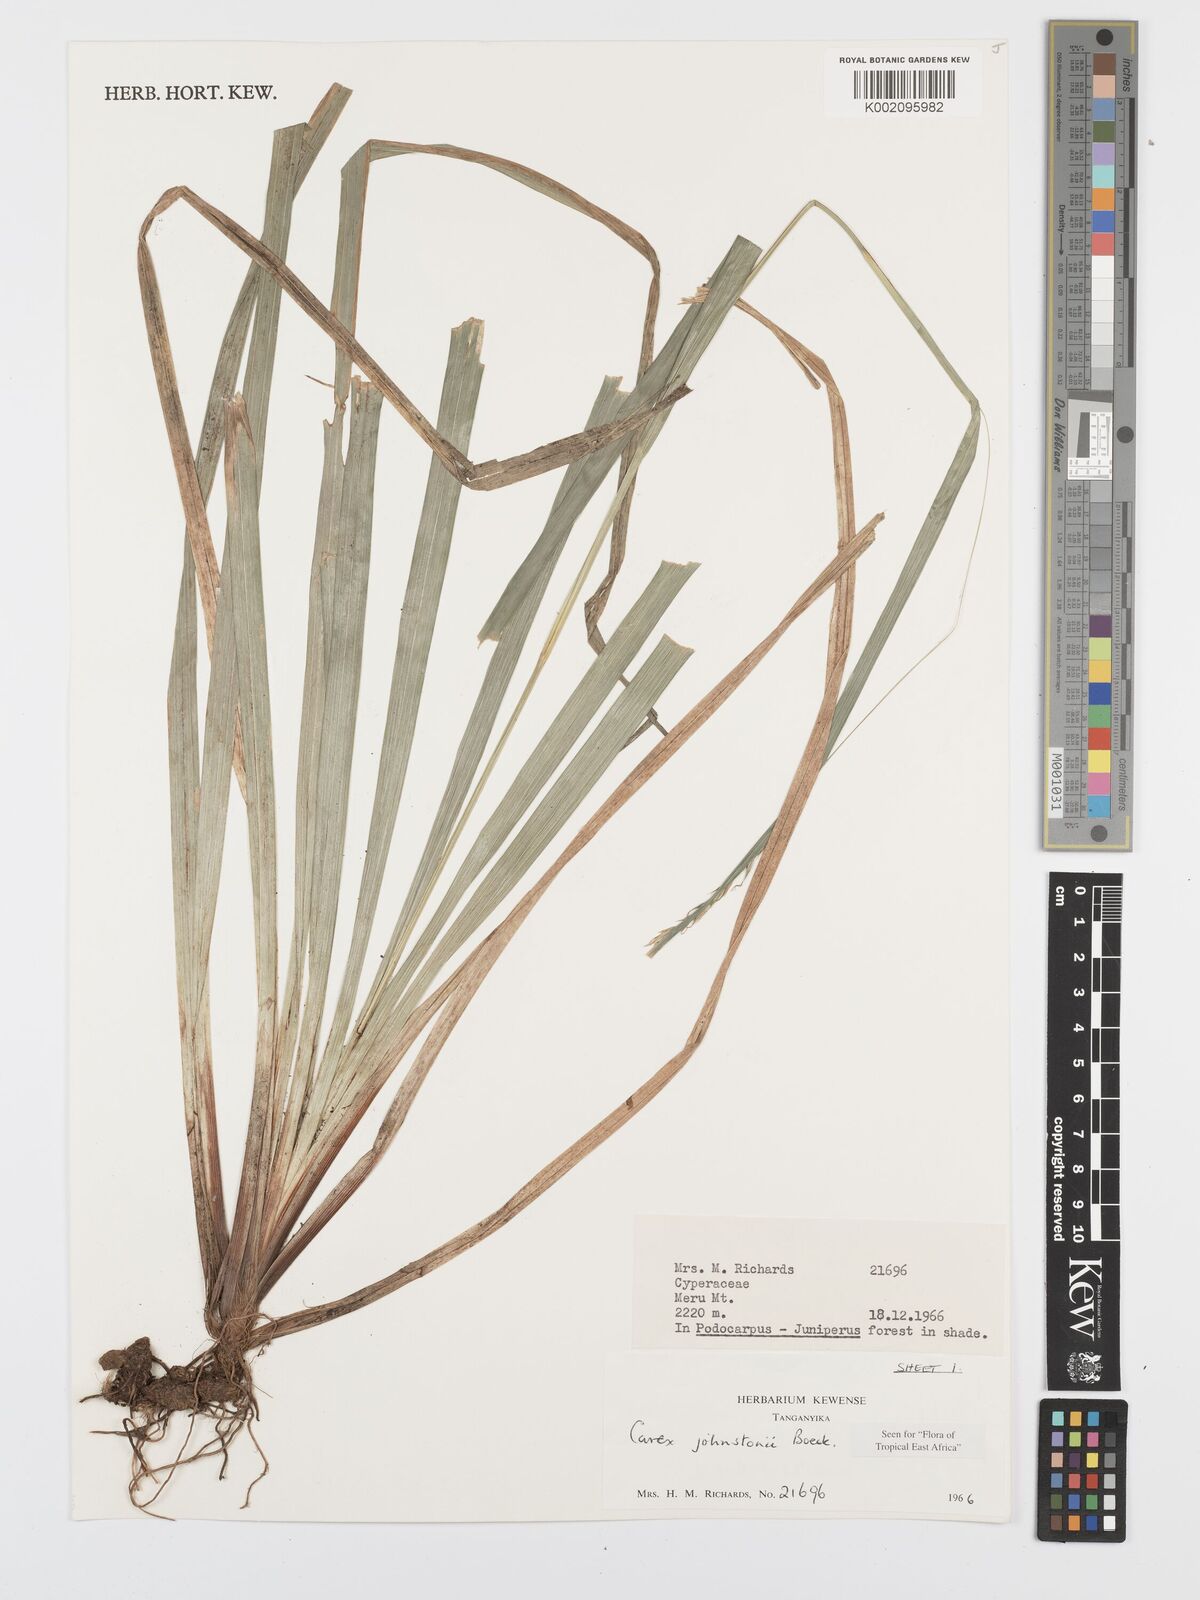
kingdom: Plantae
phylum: Tracheophyta
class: Liliopsida
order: Poales
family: Cyperaceae
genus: Carex
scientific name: Carex johnstonii
